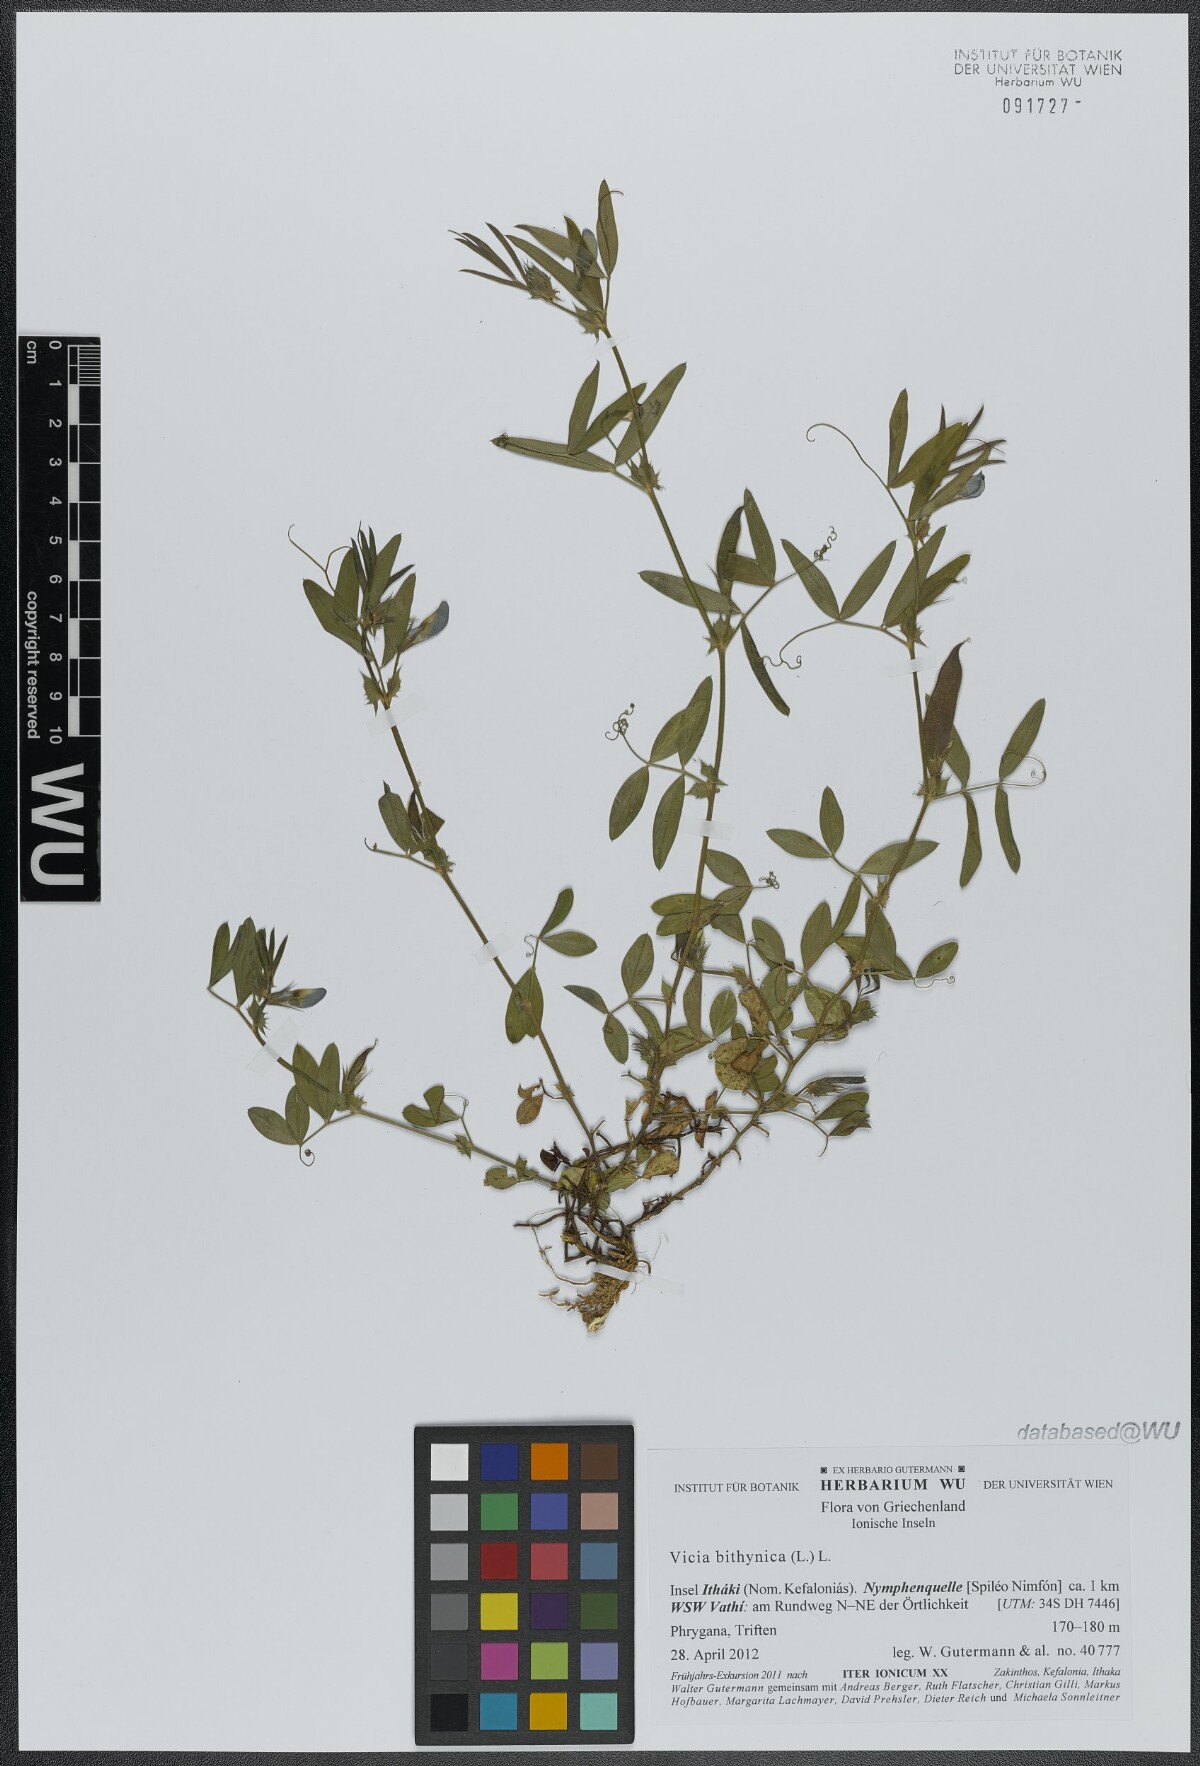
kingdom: Plantae
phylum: Tracheophyta
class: Magnoliopsida
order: Fabales
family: Fabaceae
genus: Vicia
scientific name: Vicia bithynica
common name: Bithynian vetch
